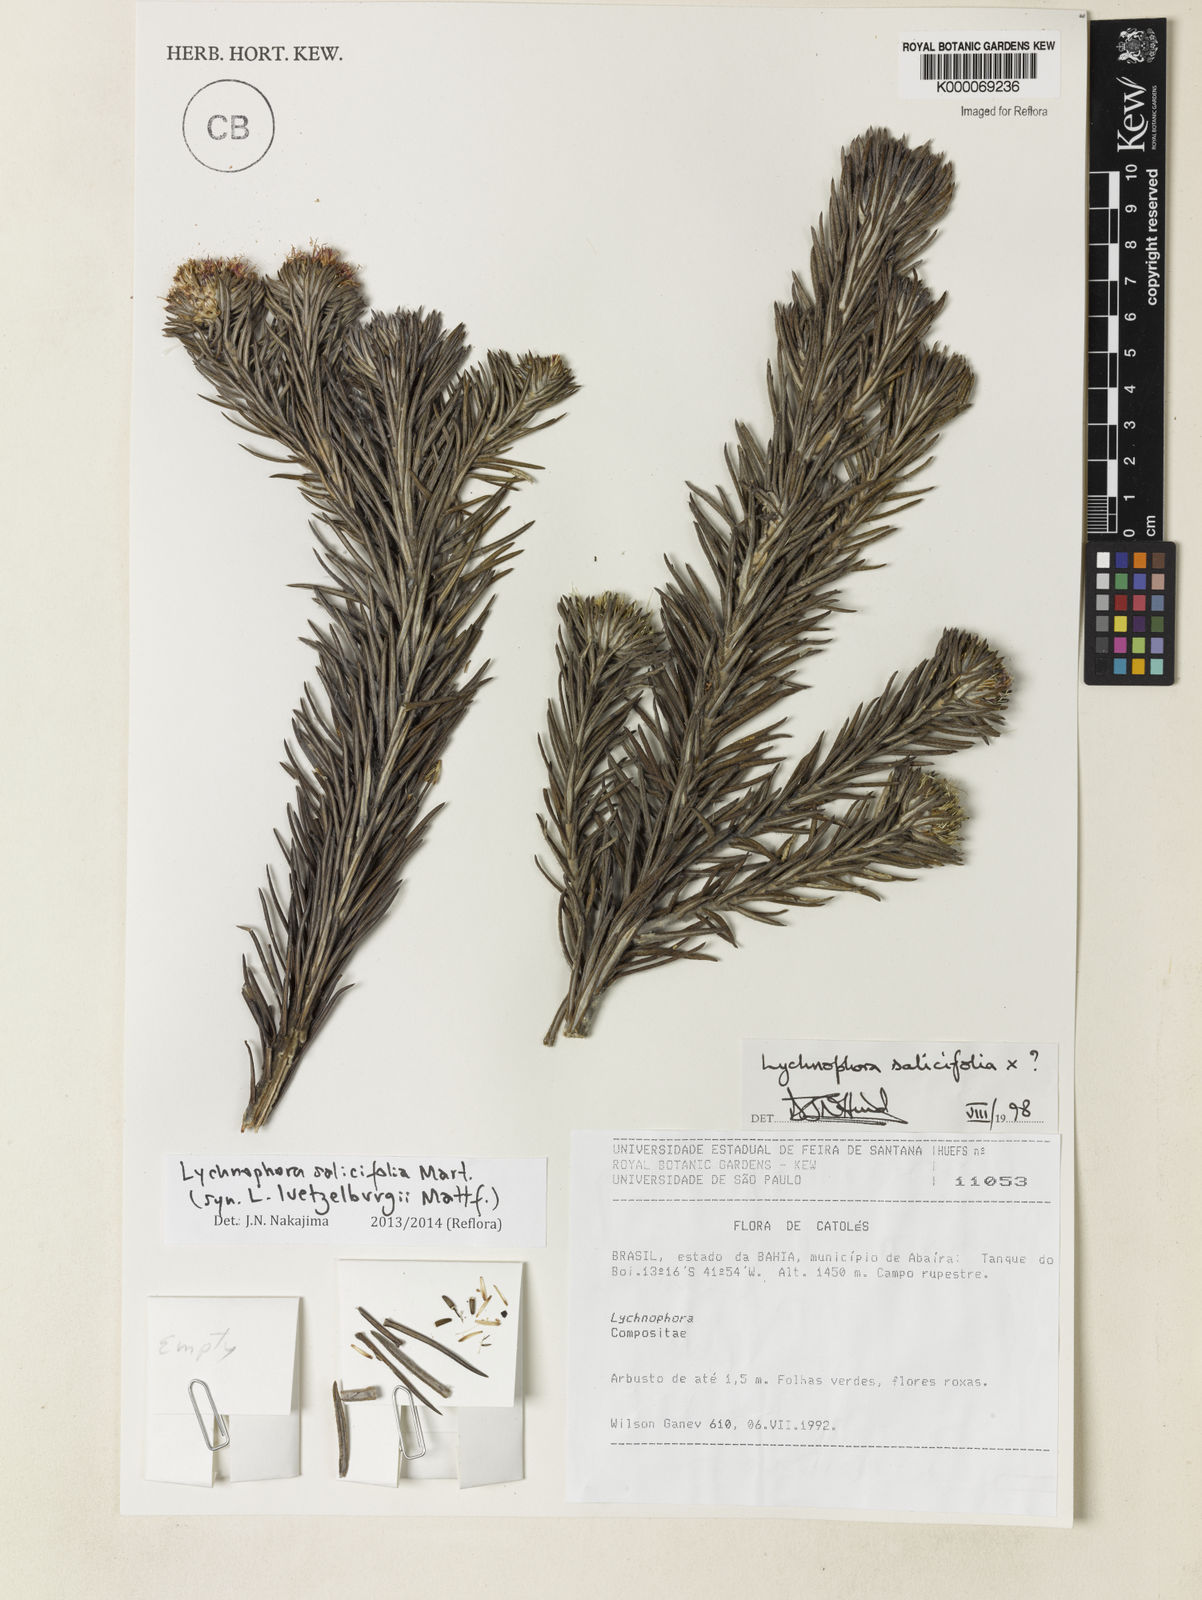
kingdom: Plantae
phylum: Tracheophyta
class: Magnoliopsida
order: Asterales
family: Asteraceae
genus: Lychnophora
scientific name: Lychnophora phylicifolia
